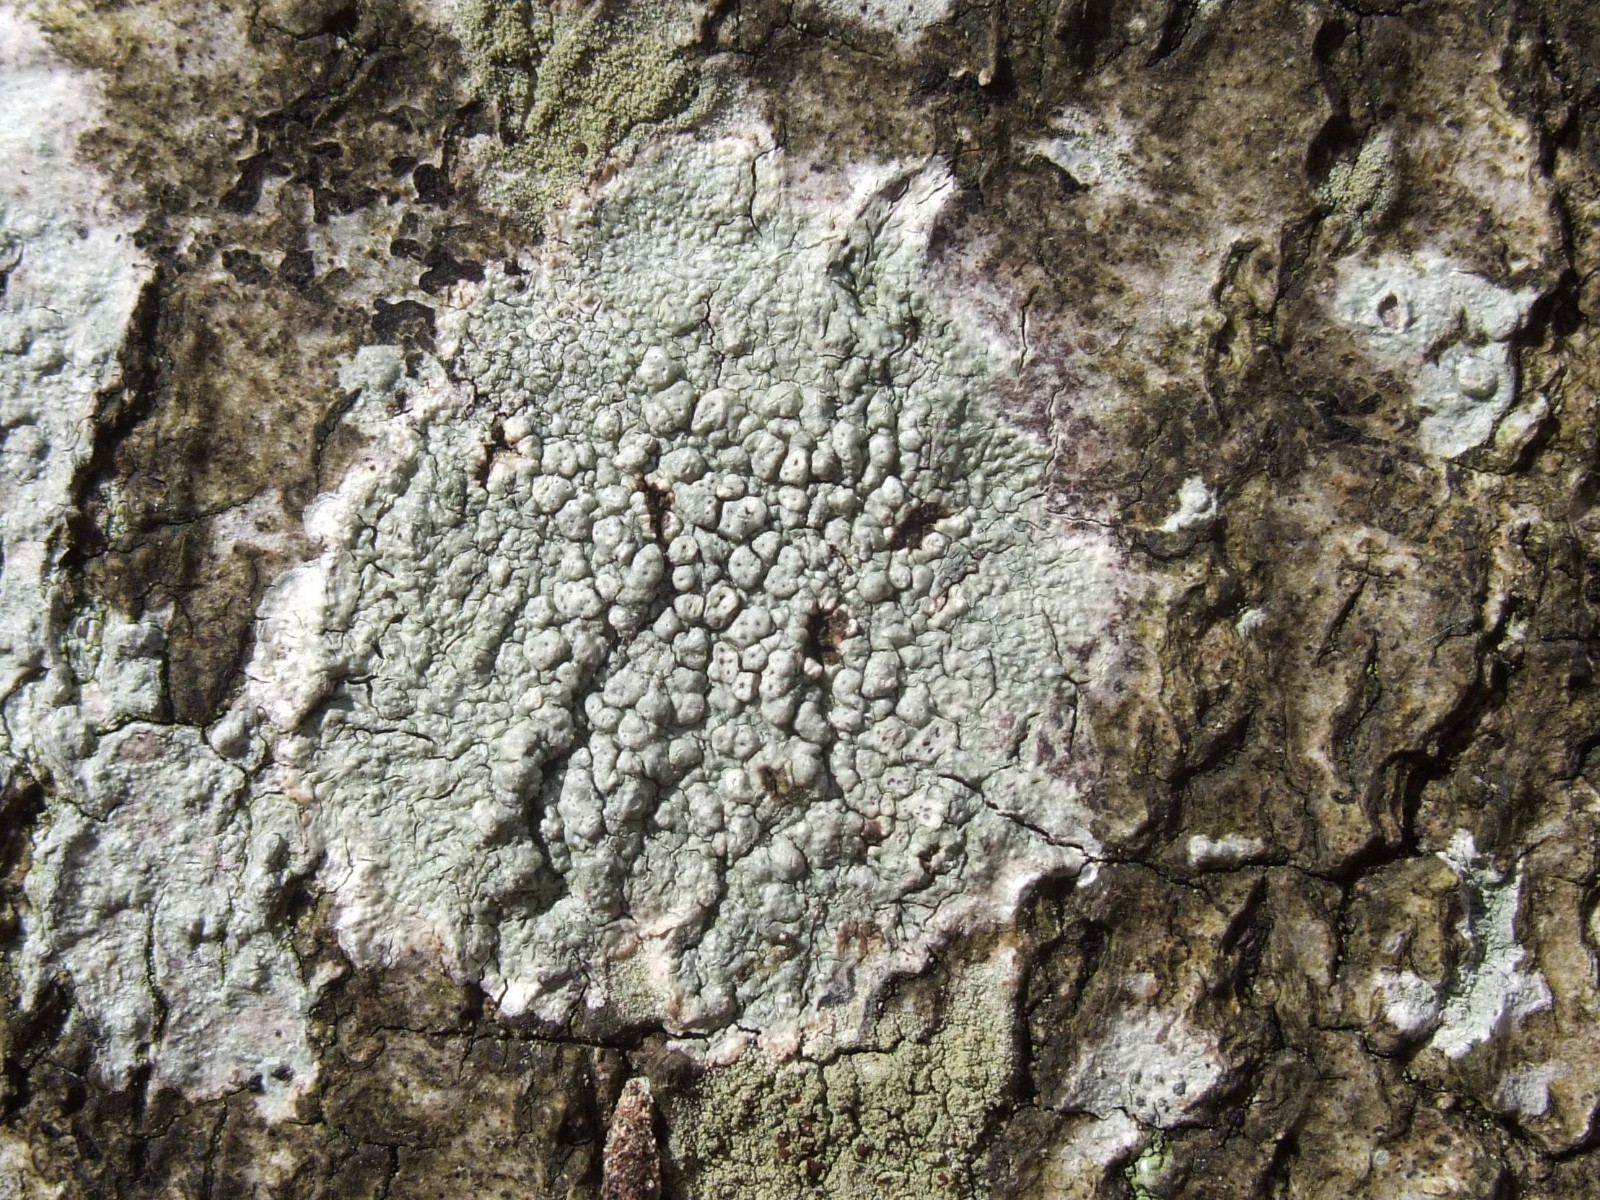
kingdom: Fungi
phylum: Ascomycota
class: Lecanoromycetes
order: Pertusariales
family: Pertusariaceae
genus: Pertusaria
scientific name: Pertusaria pertusa
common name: almindelig prikvortelav
